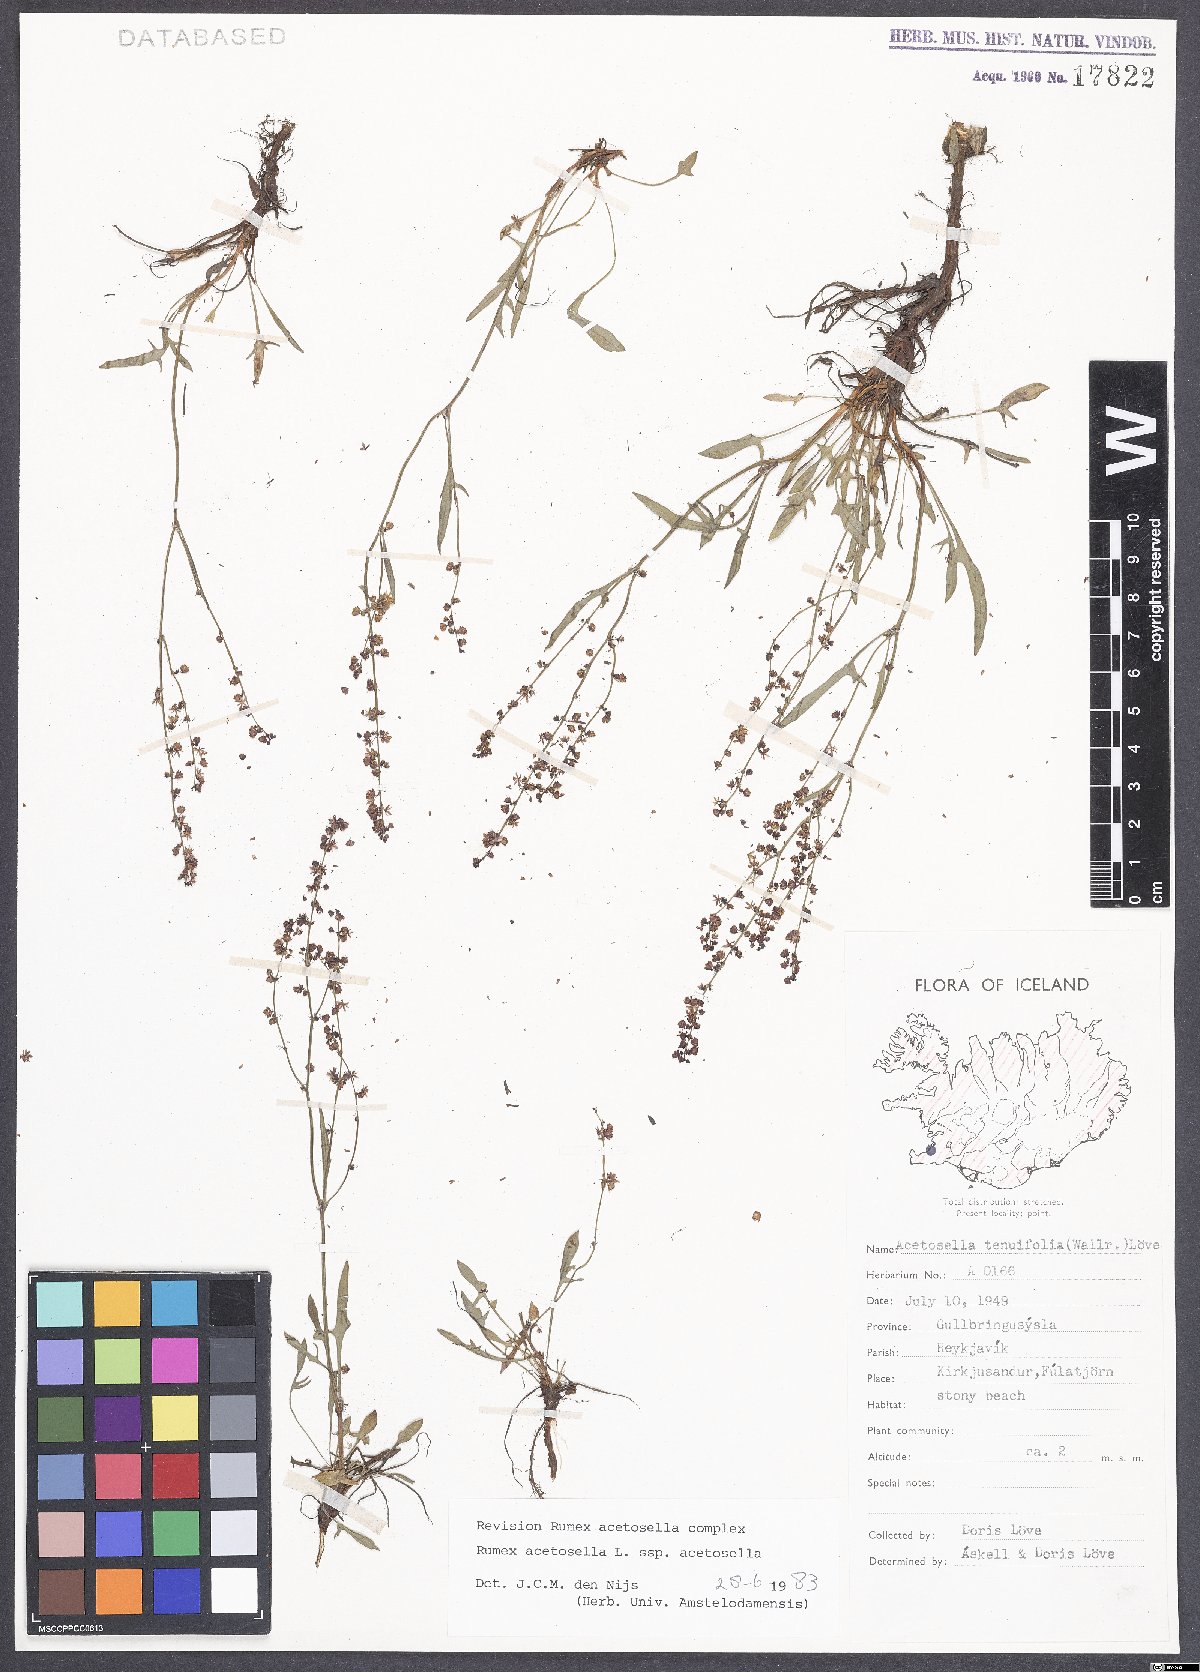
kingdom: Plantae
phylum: Tracheophyta
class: Magnoliopsida
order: Caryophyllales
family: Polygonaceae
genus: Rumex
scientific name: Rumex acetosella
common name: Common sheep sorrel
